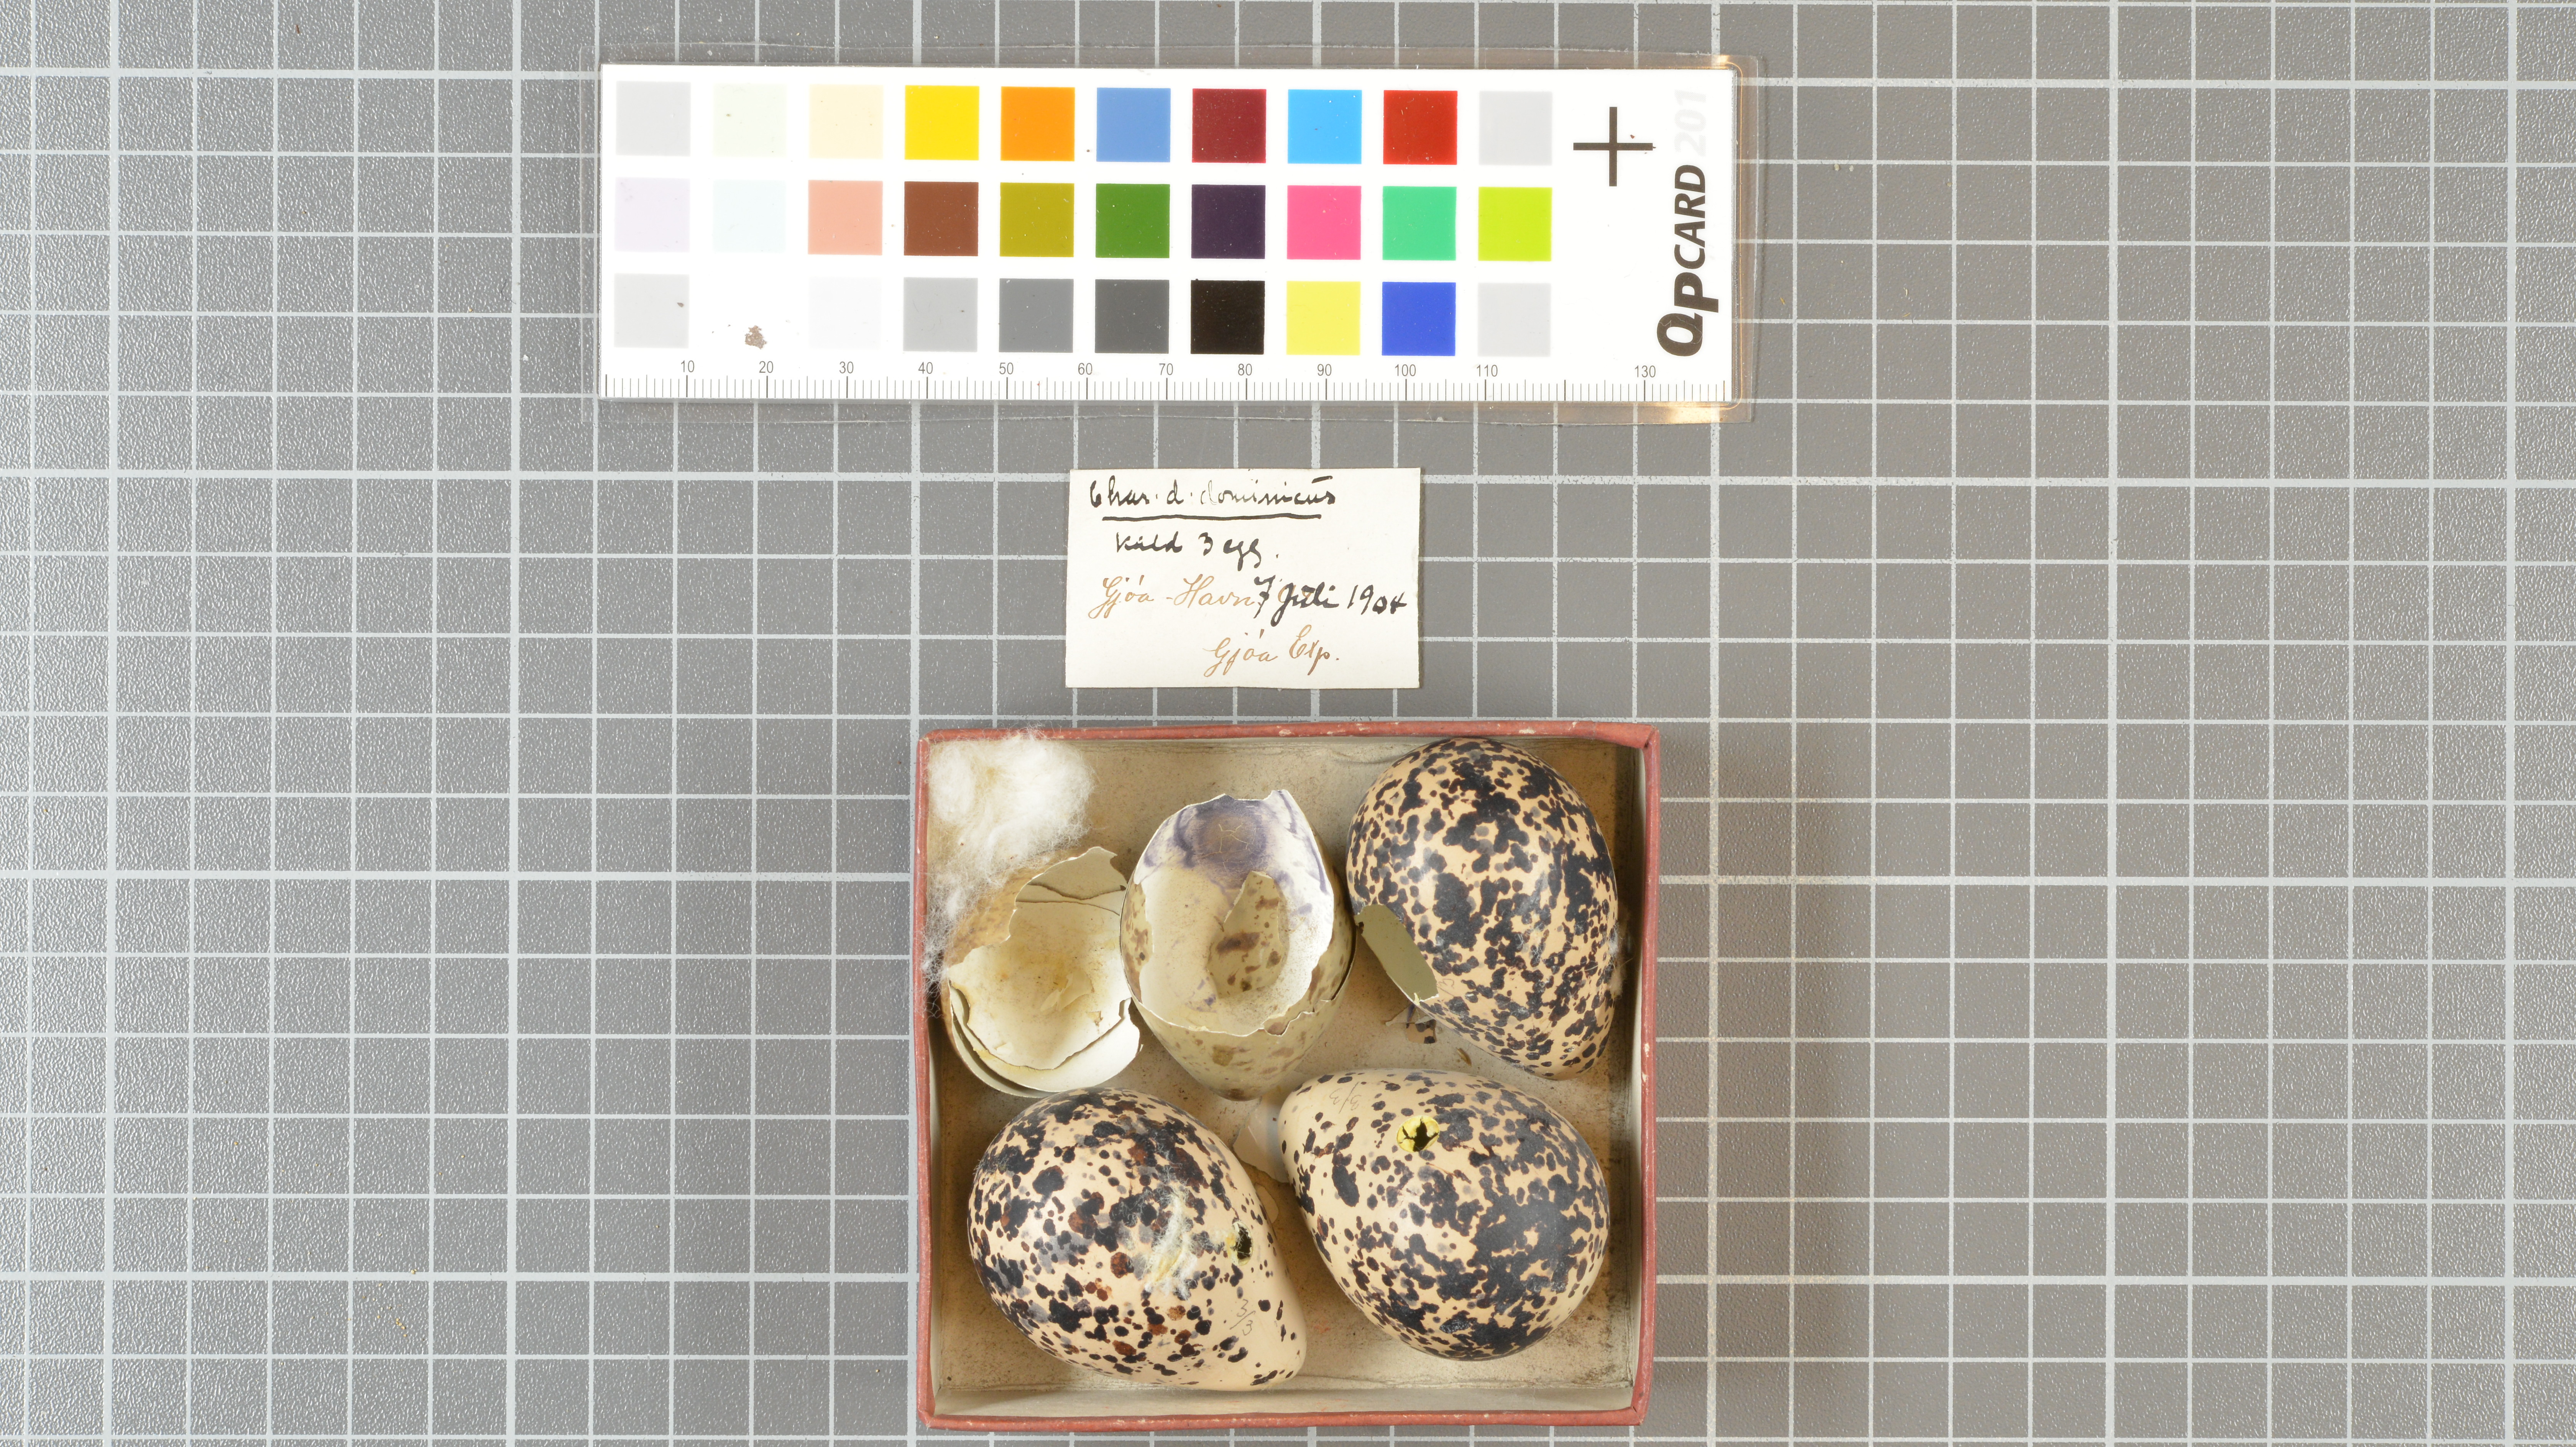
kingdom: Animalia
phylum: Chordata
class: Aves
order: Charadriiformes
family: Charadriidae
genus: Pluvialis
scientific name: Pluvialis dominica
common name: American golden plover
